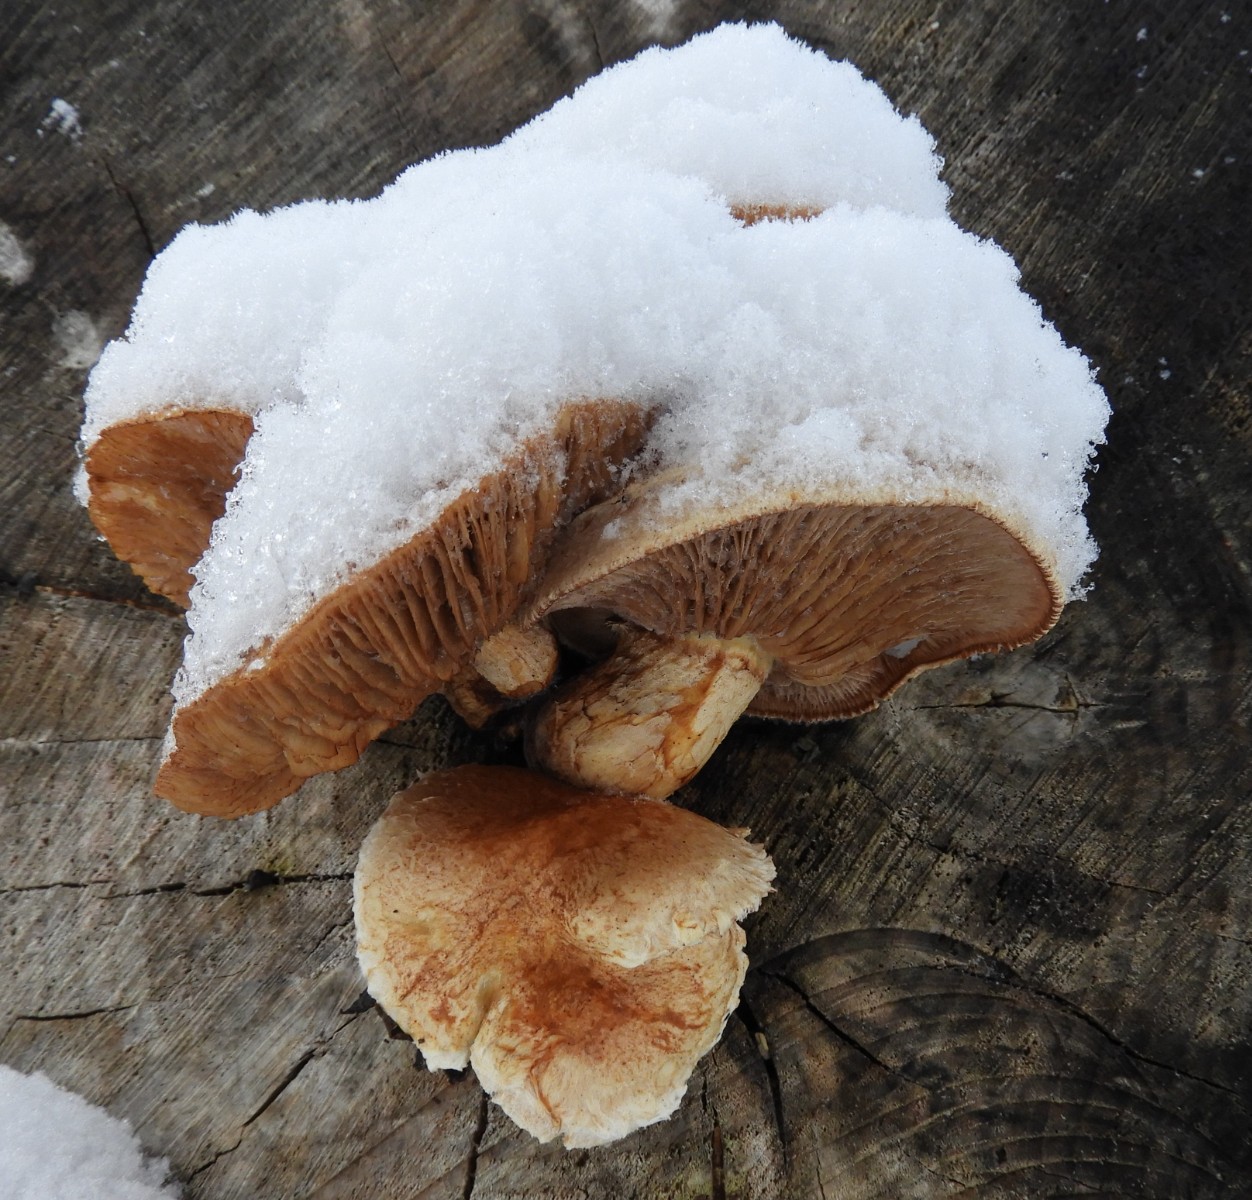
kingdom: Fungi
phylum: Basidiomycota
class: Agaricomycetes
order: Agaricales
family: Strophariaceae
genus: Pholiota
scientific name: Pholiota populnea
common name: poppel-kæmpeskælhat
